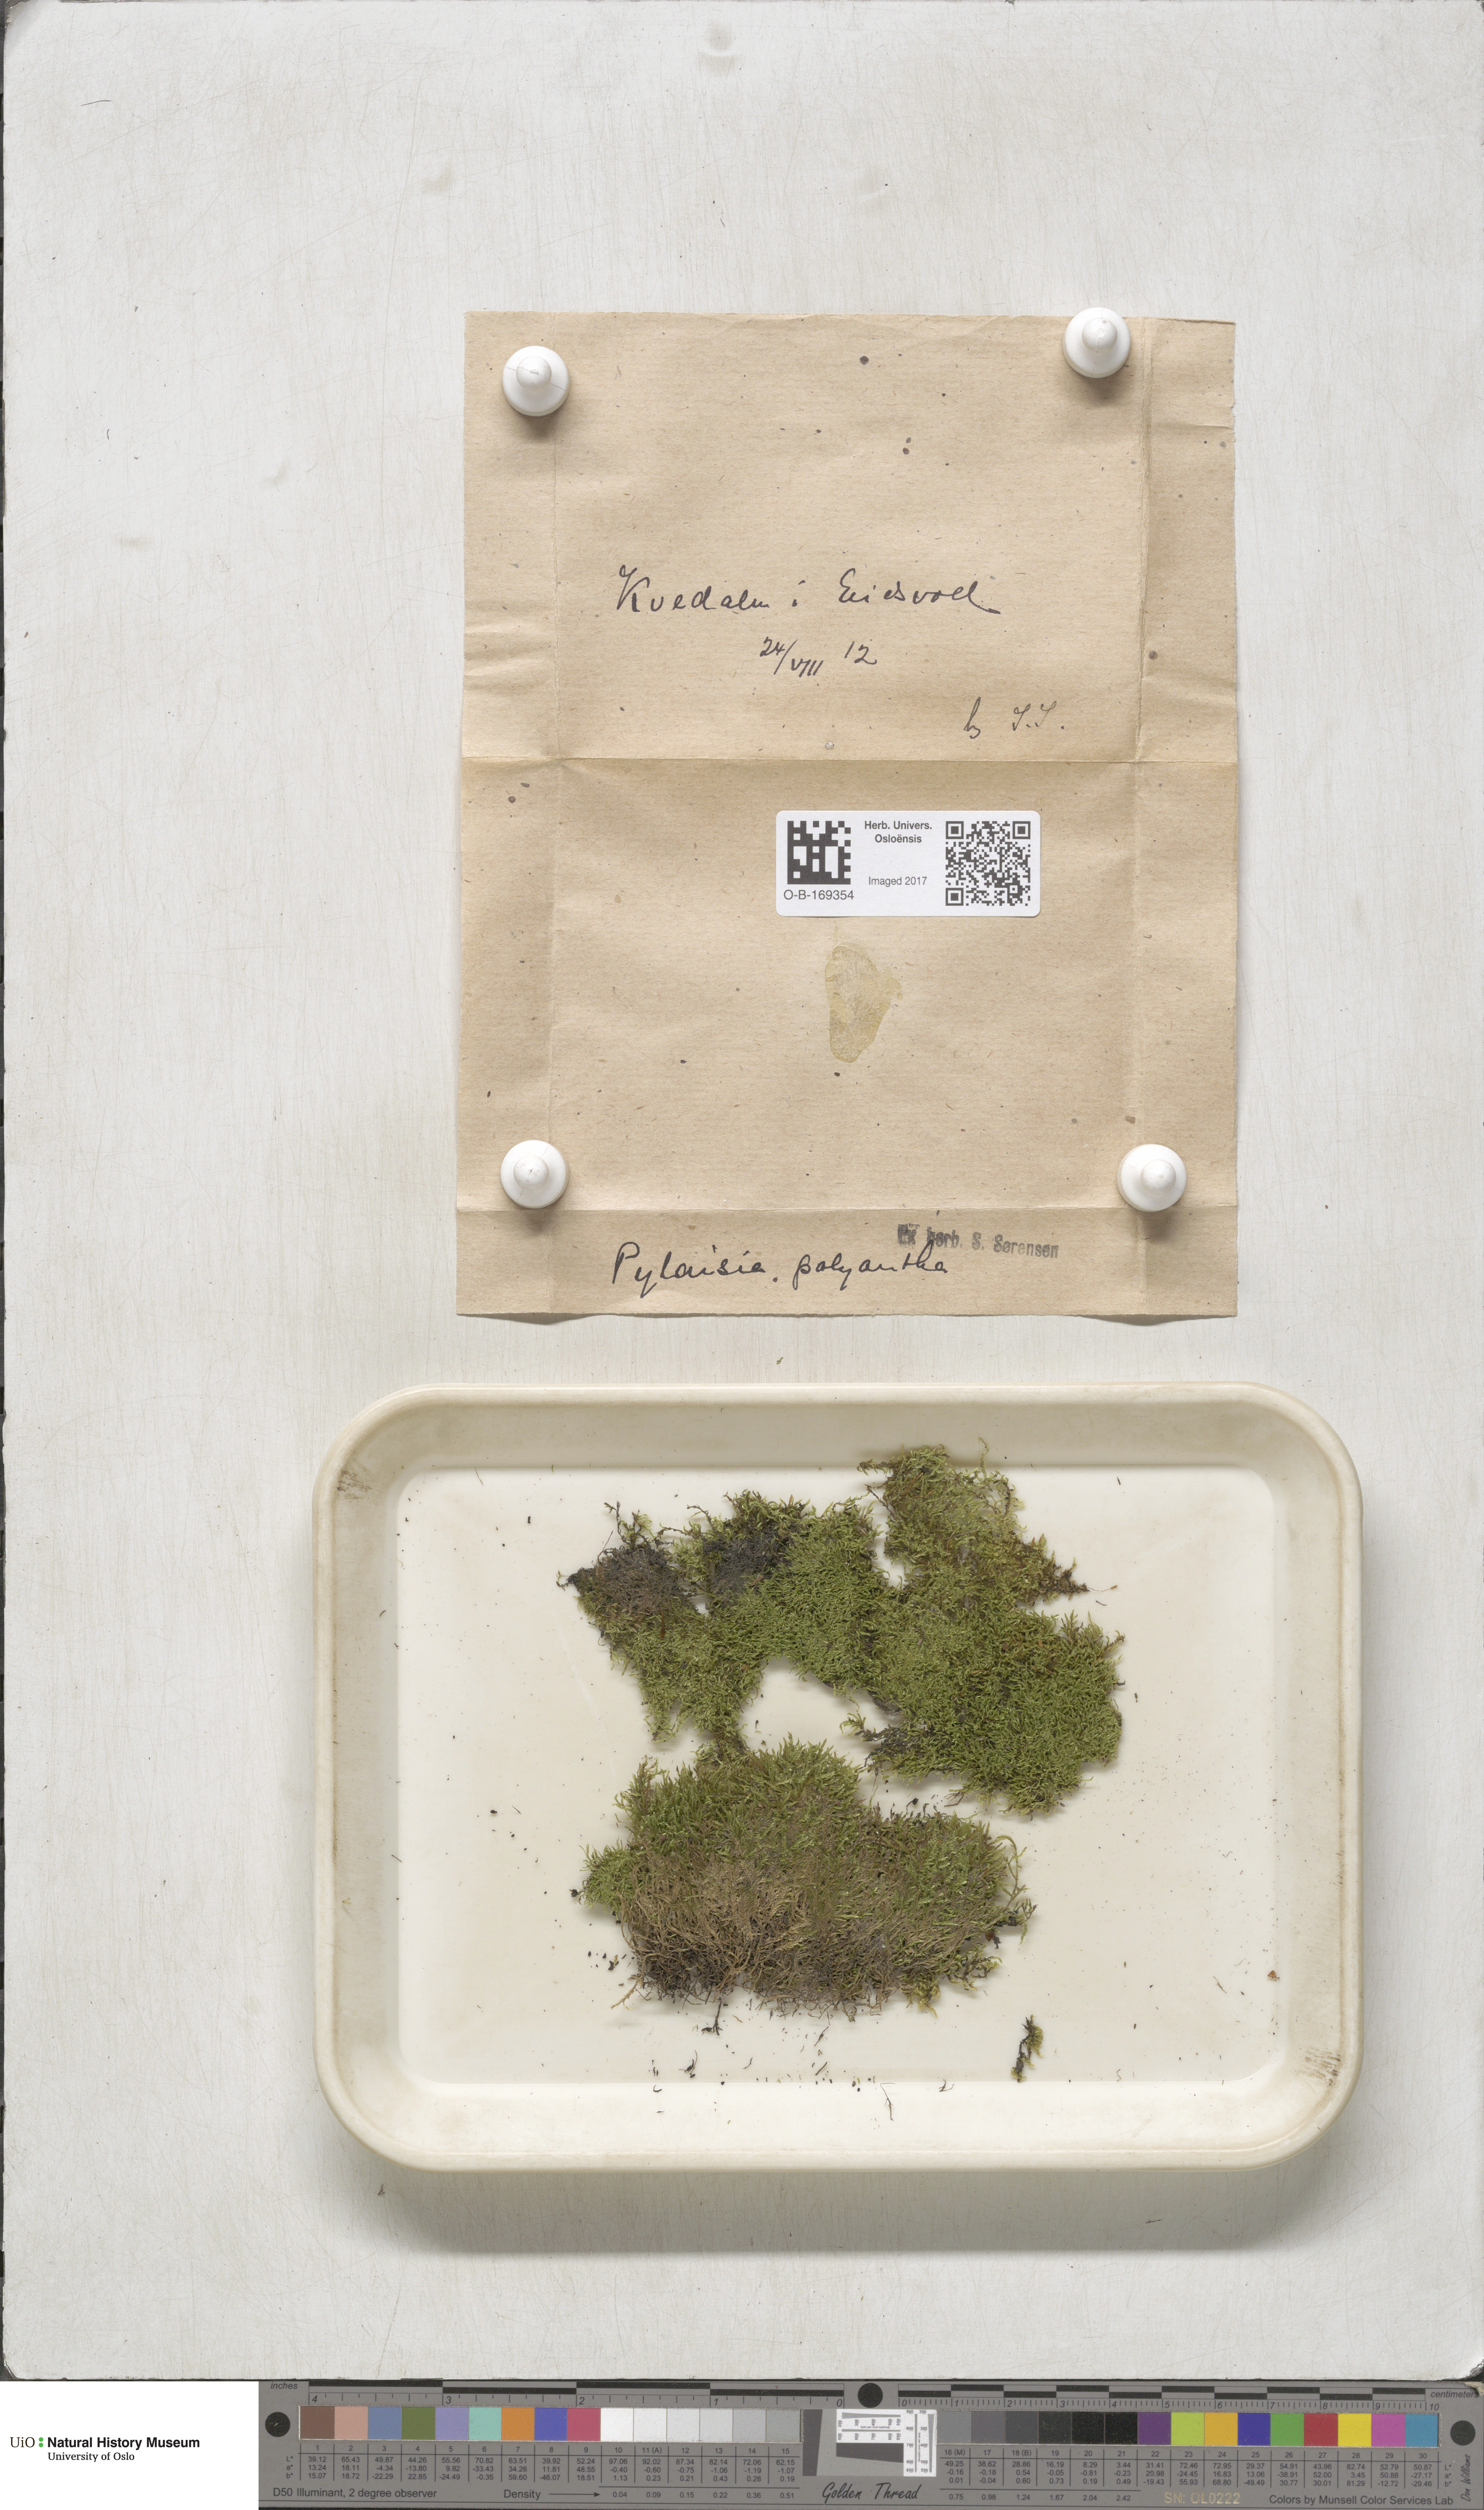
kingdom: Plantae
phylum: Bryophyta
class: Bryopsida
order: Hypnales
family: Pylaisiaceae
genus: Pylaisia
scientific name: Pylaisia polyantha
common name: Many-flowered leskea
